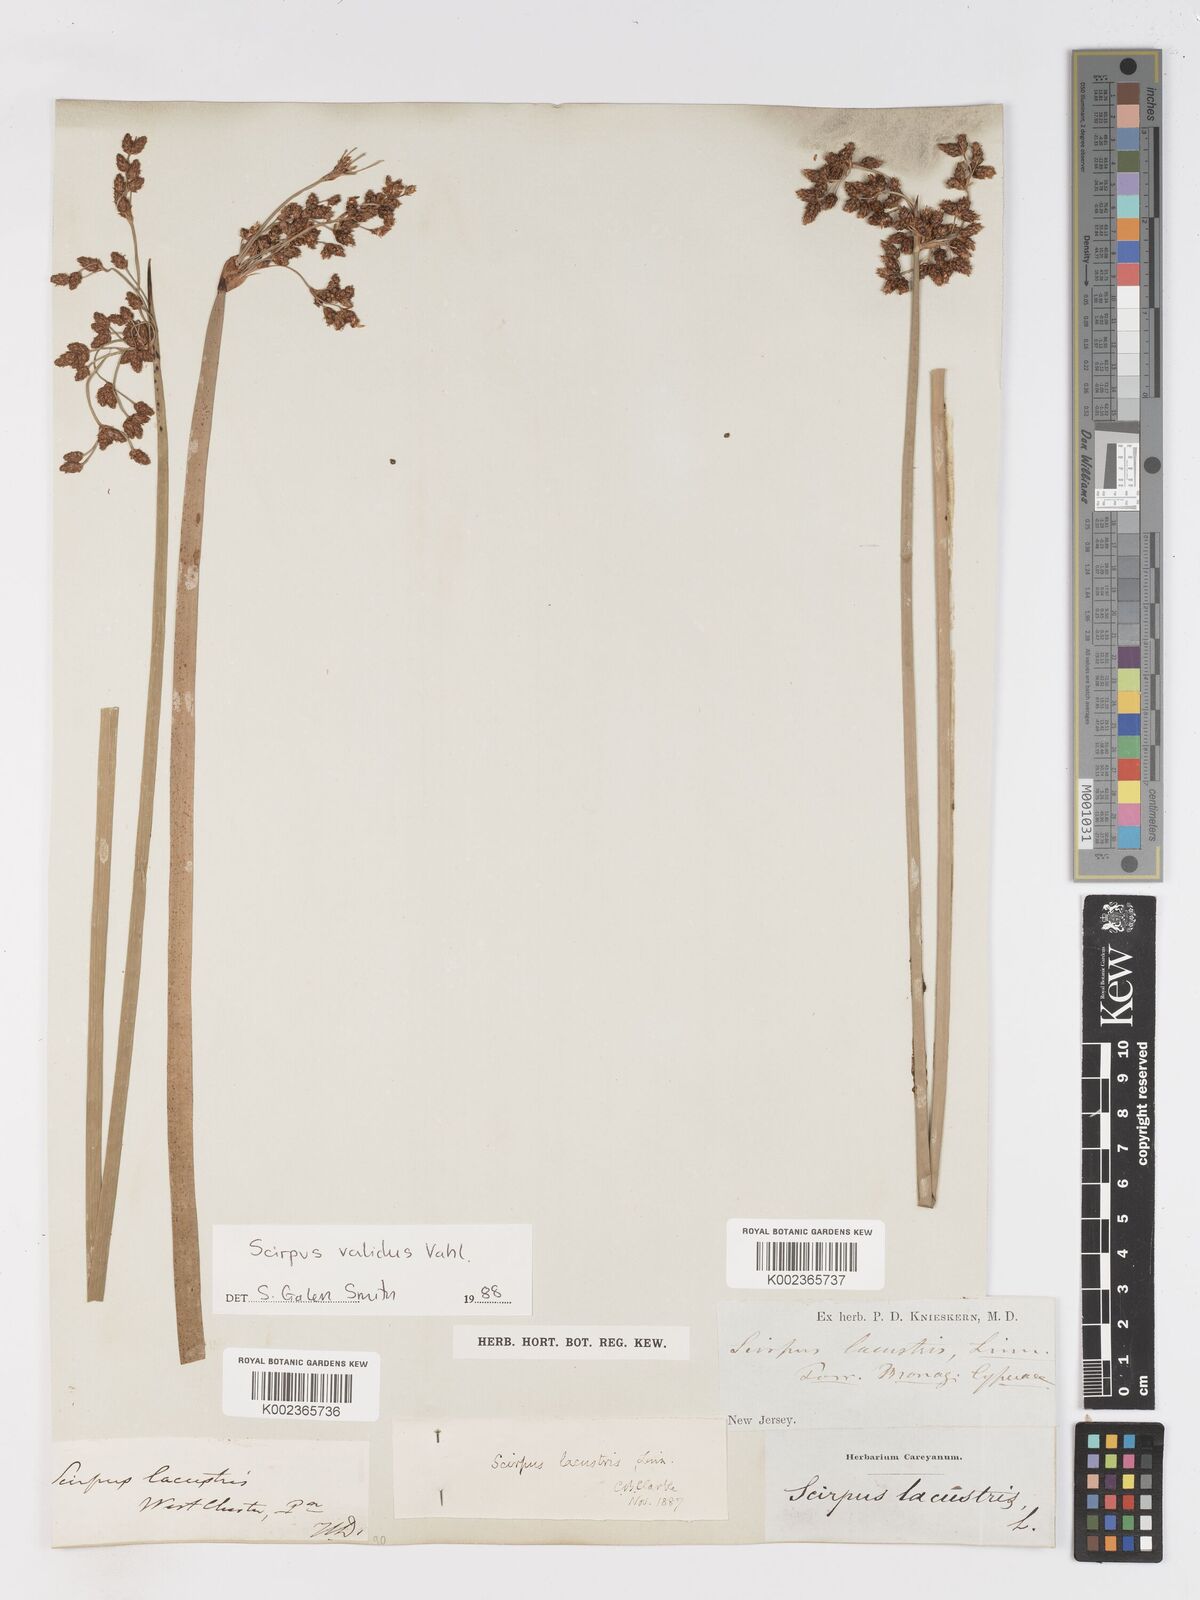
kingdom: Plantae
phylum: Tracheophyta
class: Liliopsida
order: Poales
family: Cyperaceae
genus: Schoenoplectus
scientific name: Schoenoplectus lacustris
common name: Common club-rush
